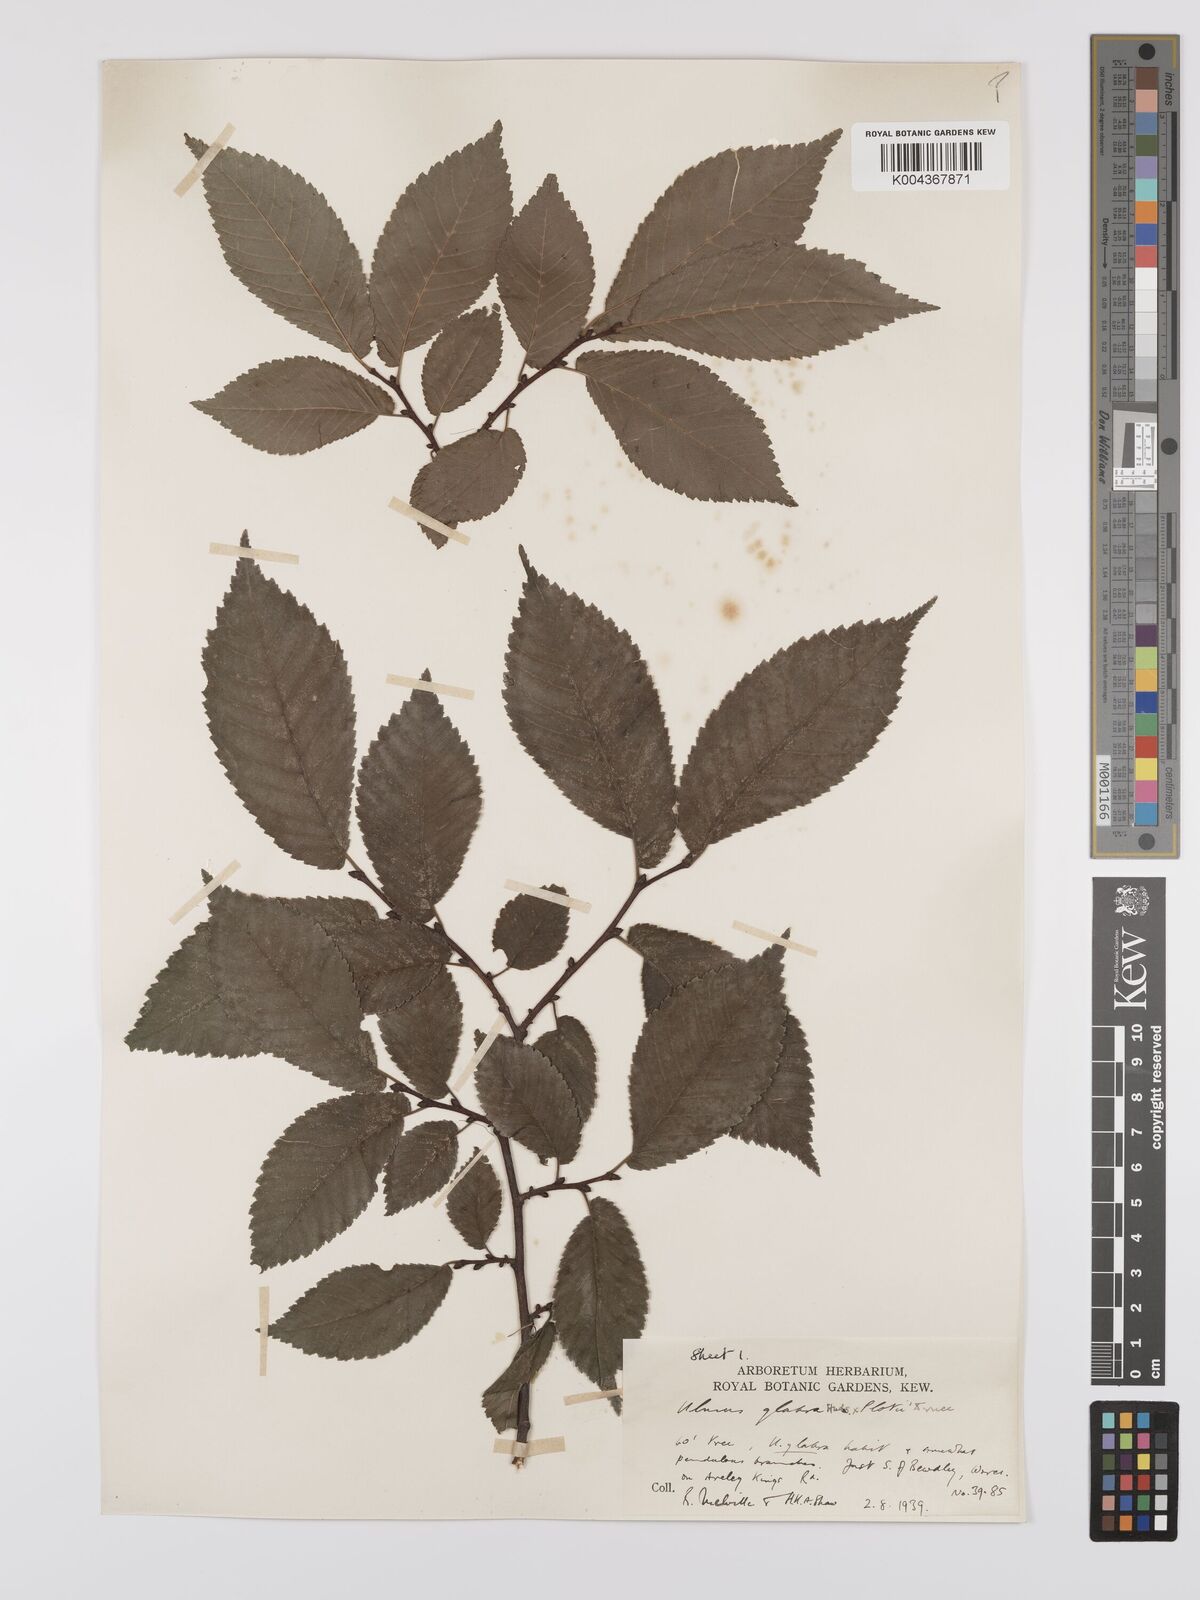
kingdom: Plantae
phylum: Tracheophyta
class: Magnoliopsida
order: Rosales
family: Ulmaceae
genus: Ulmus
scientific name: Ulmus
